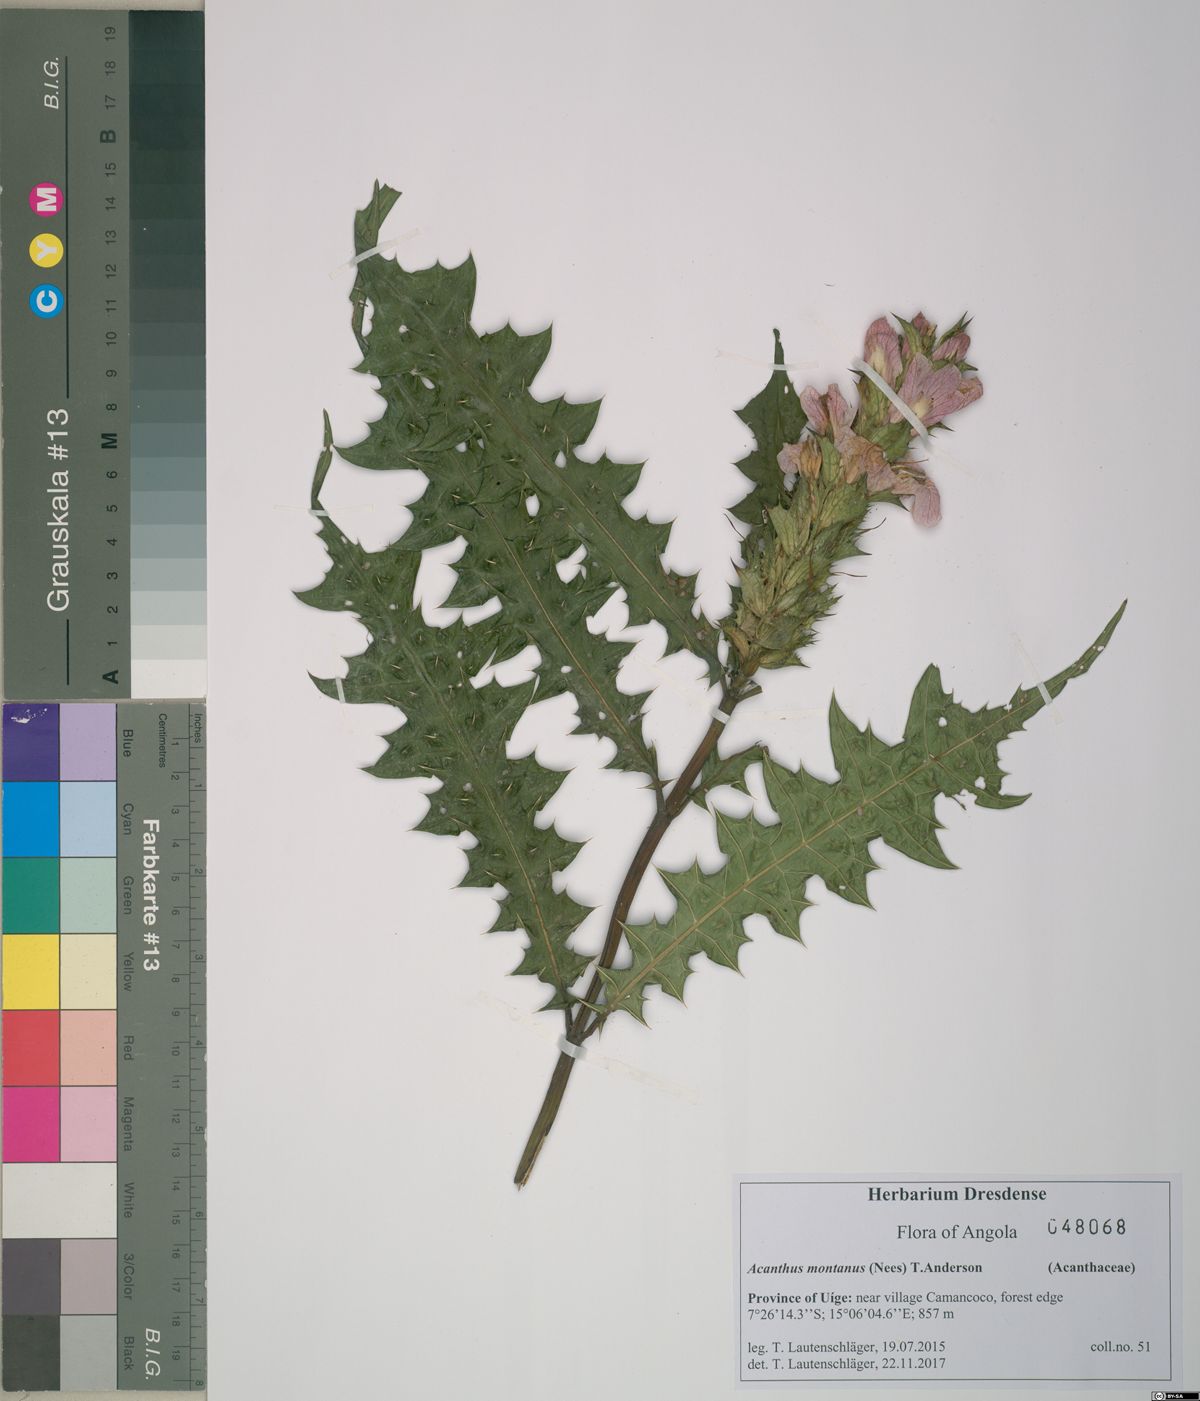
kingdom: Plantae
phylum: Tracheophyta
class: Magnoliopsida
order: Lamiales
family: Acanthaceae
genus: Acanthus
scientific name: Acanthus montanus
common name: Mountain thistle
